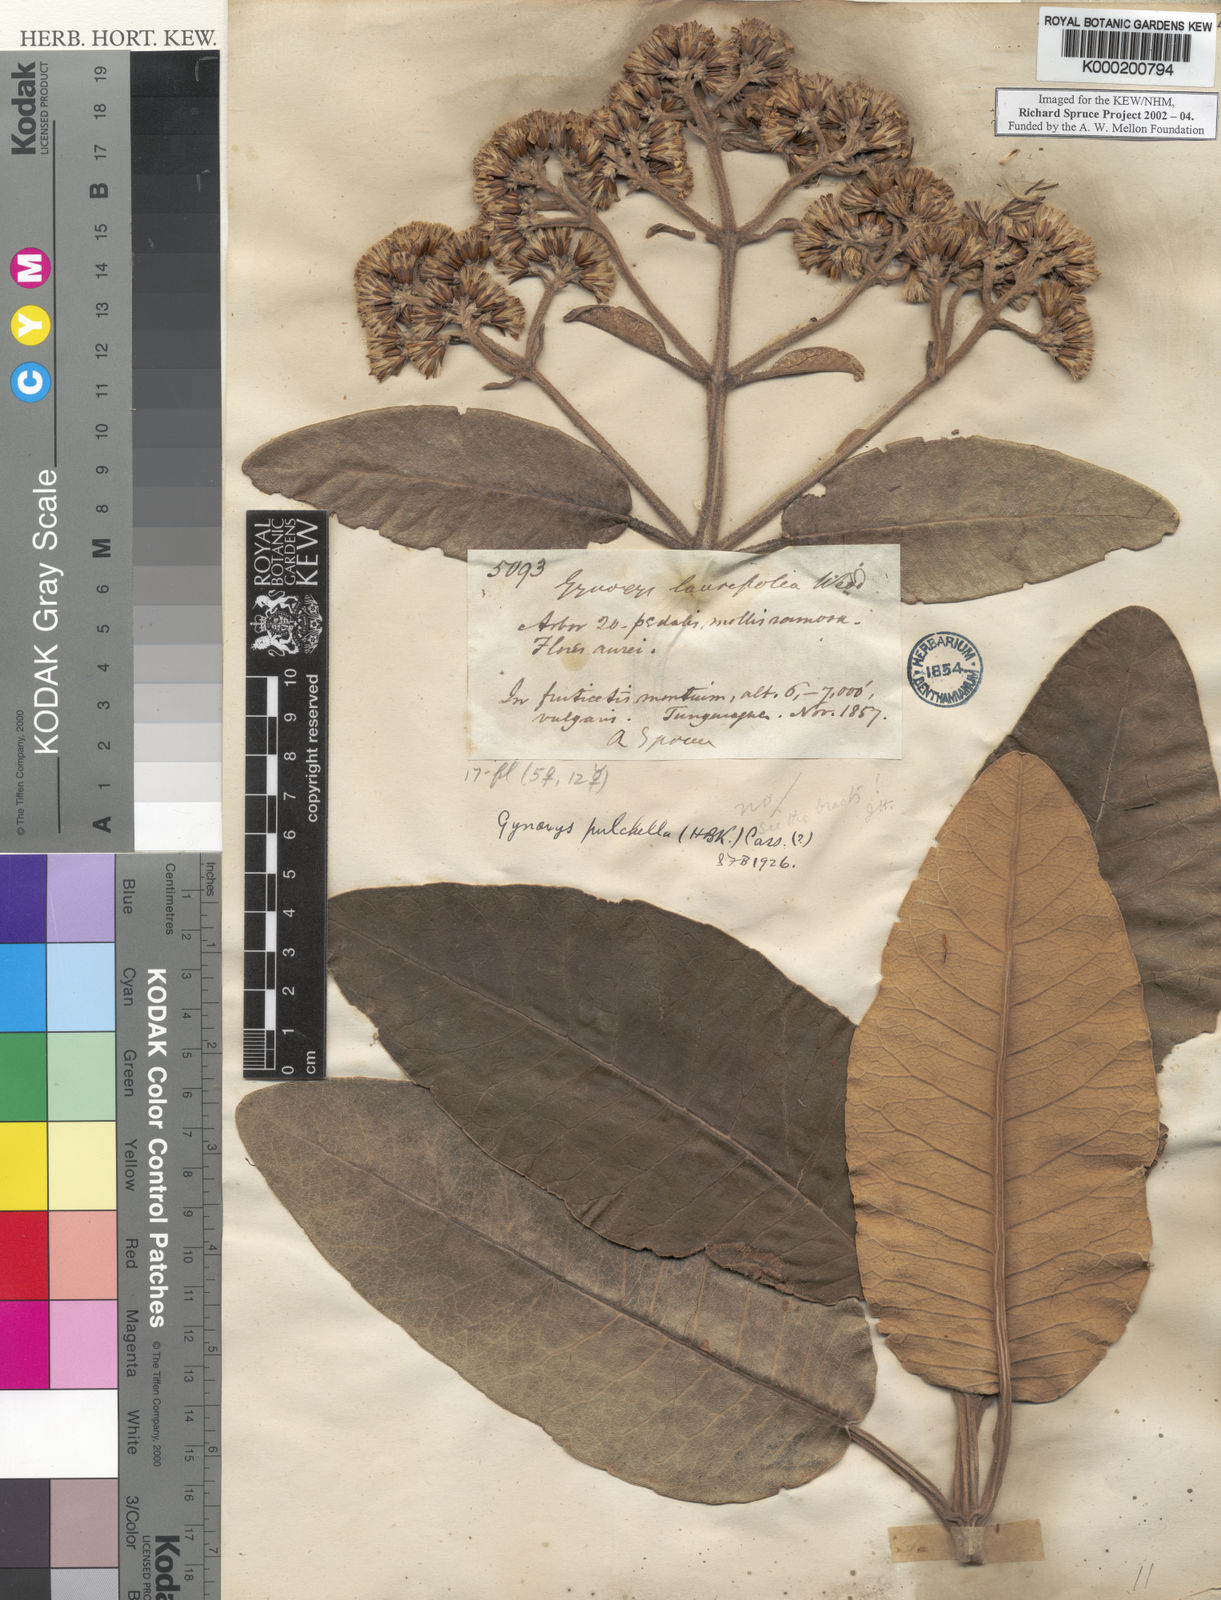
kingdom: Plantae
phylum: Tracheophyta
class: Magnoliopsida
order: Asterales
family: Asteraceae
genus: Gynoxys
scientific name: Gynoxys pulchella
